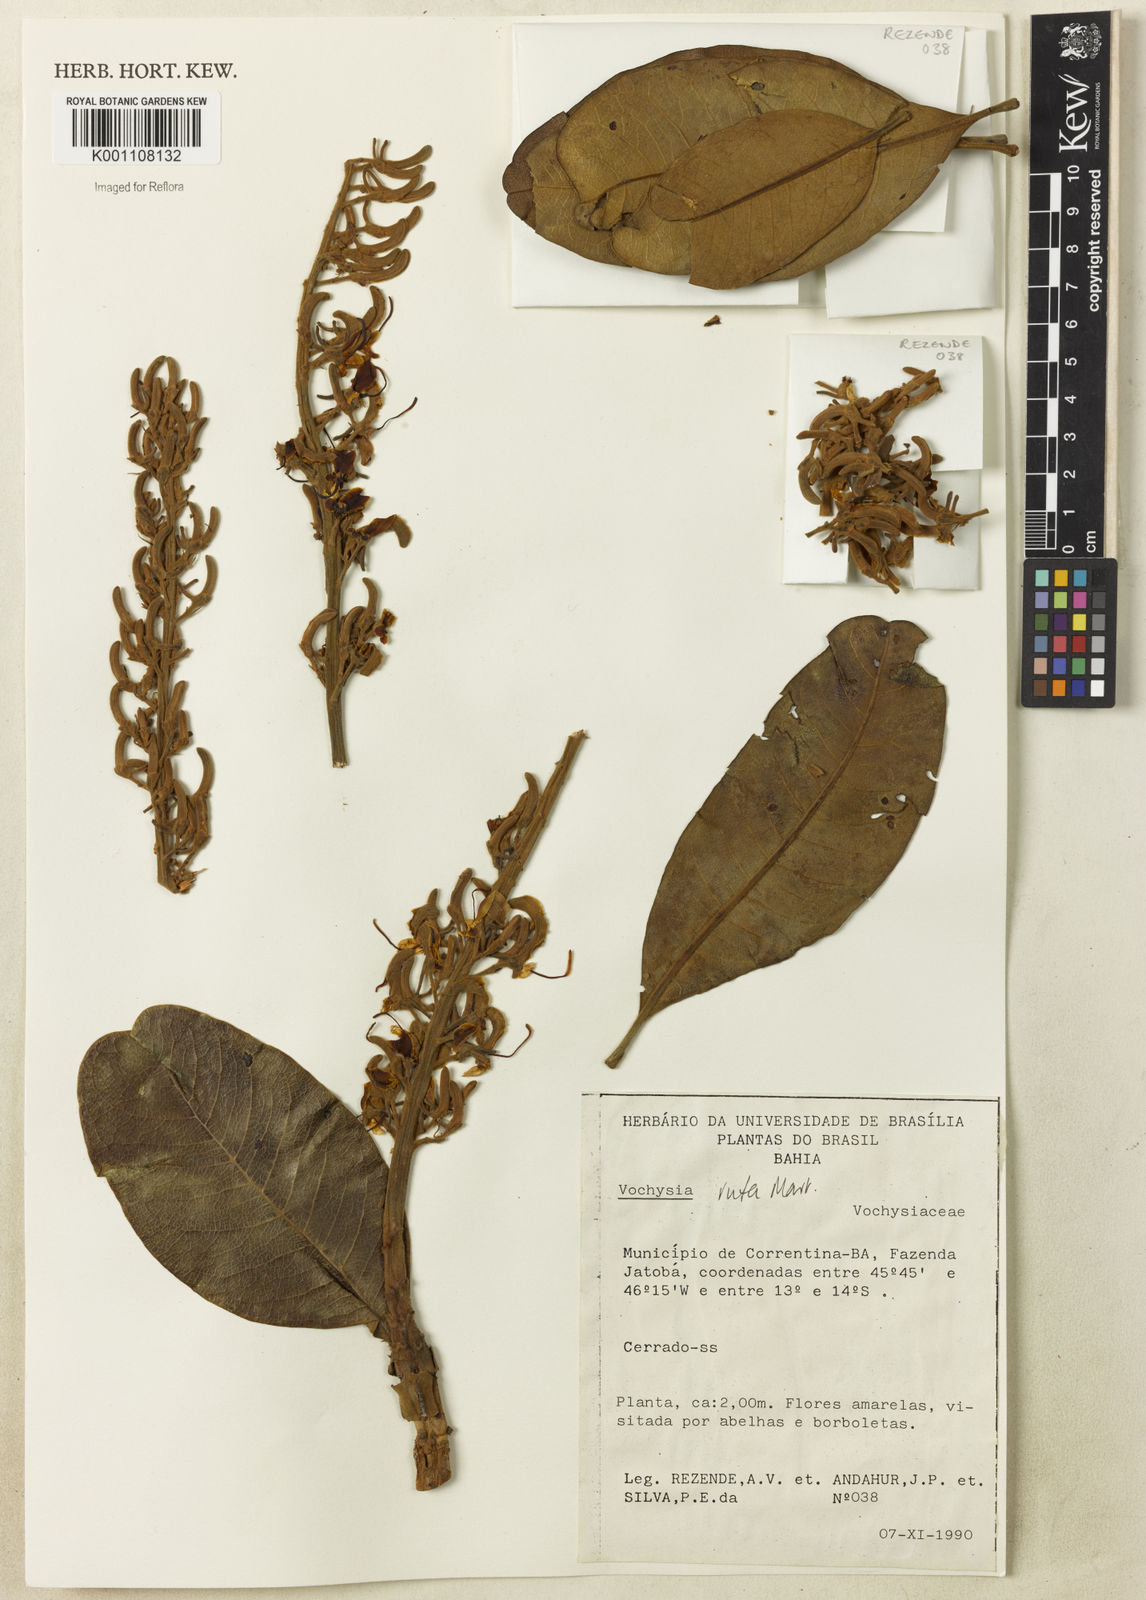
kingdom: Plantae
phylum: Tracheophyta
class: Magnoliopsida
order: Myrtales
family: Vochysiaceae
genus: Vochysia
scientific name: Vochysia rufa
